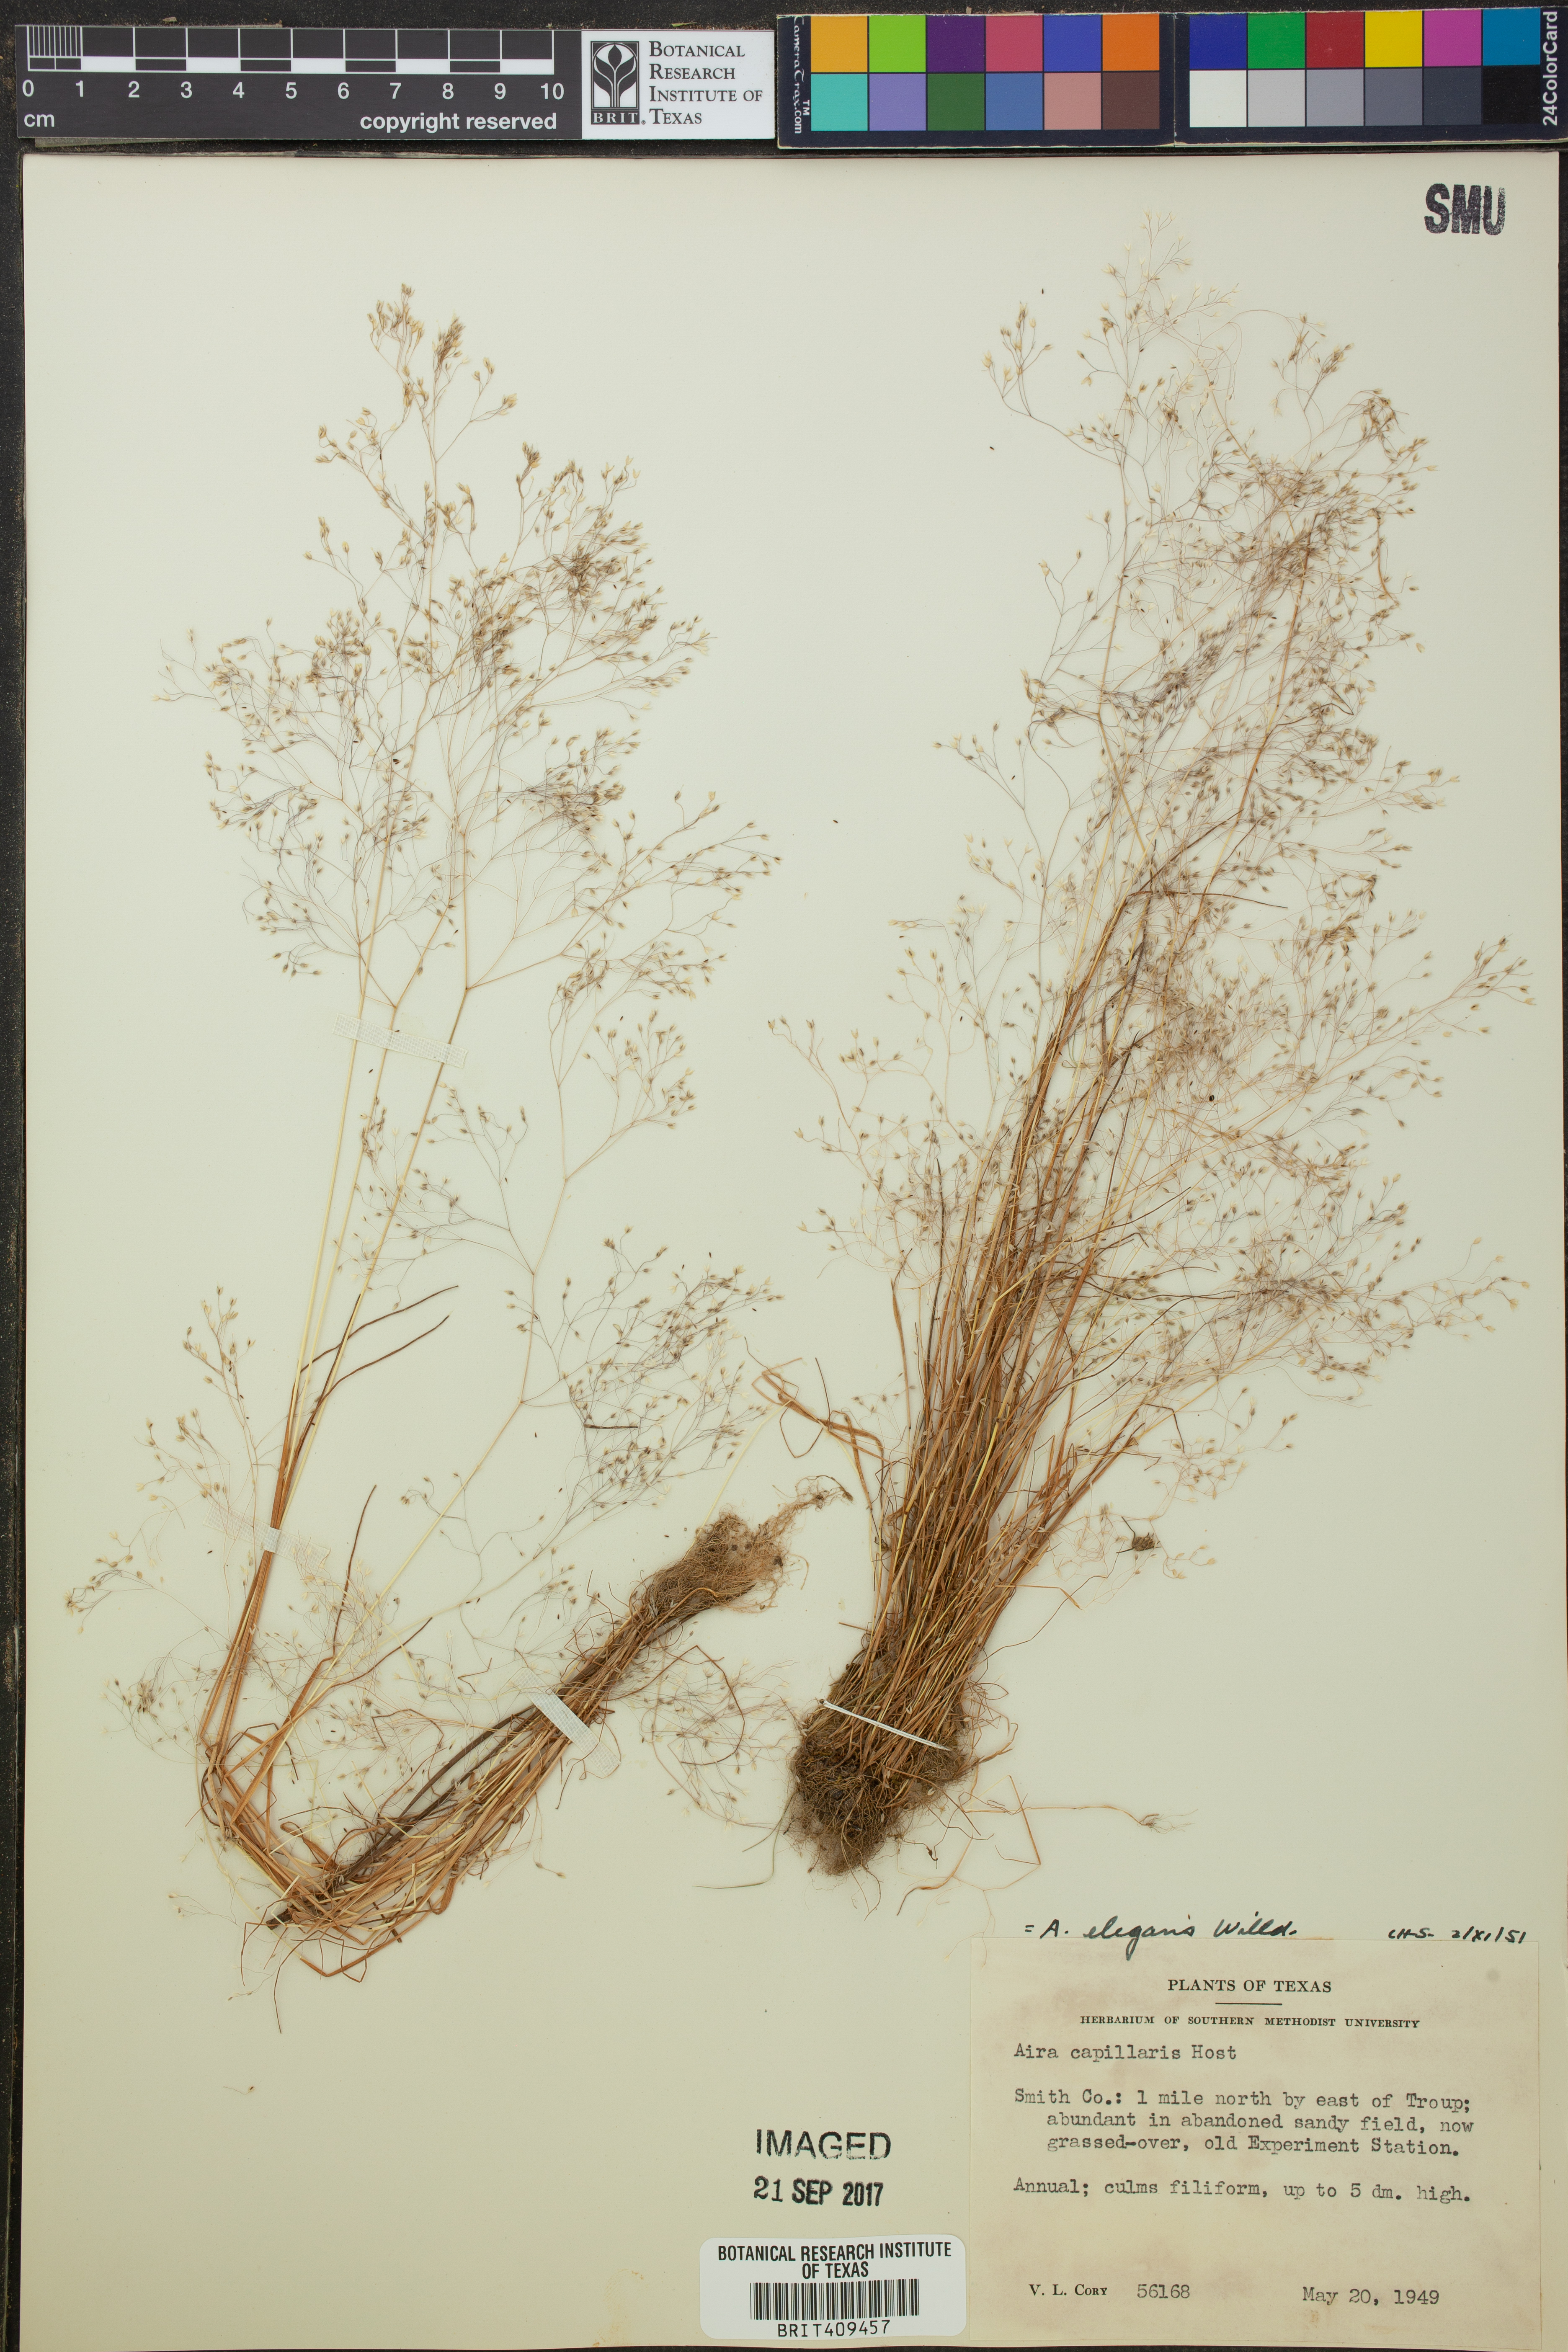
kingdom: Plantae
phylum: Tracheophyta
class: Liliopsida
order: Poales
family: Poaceae
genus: Aira
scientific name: Aira elegans
